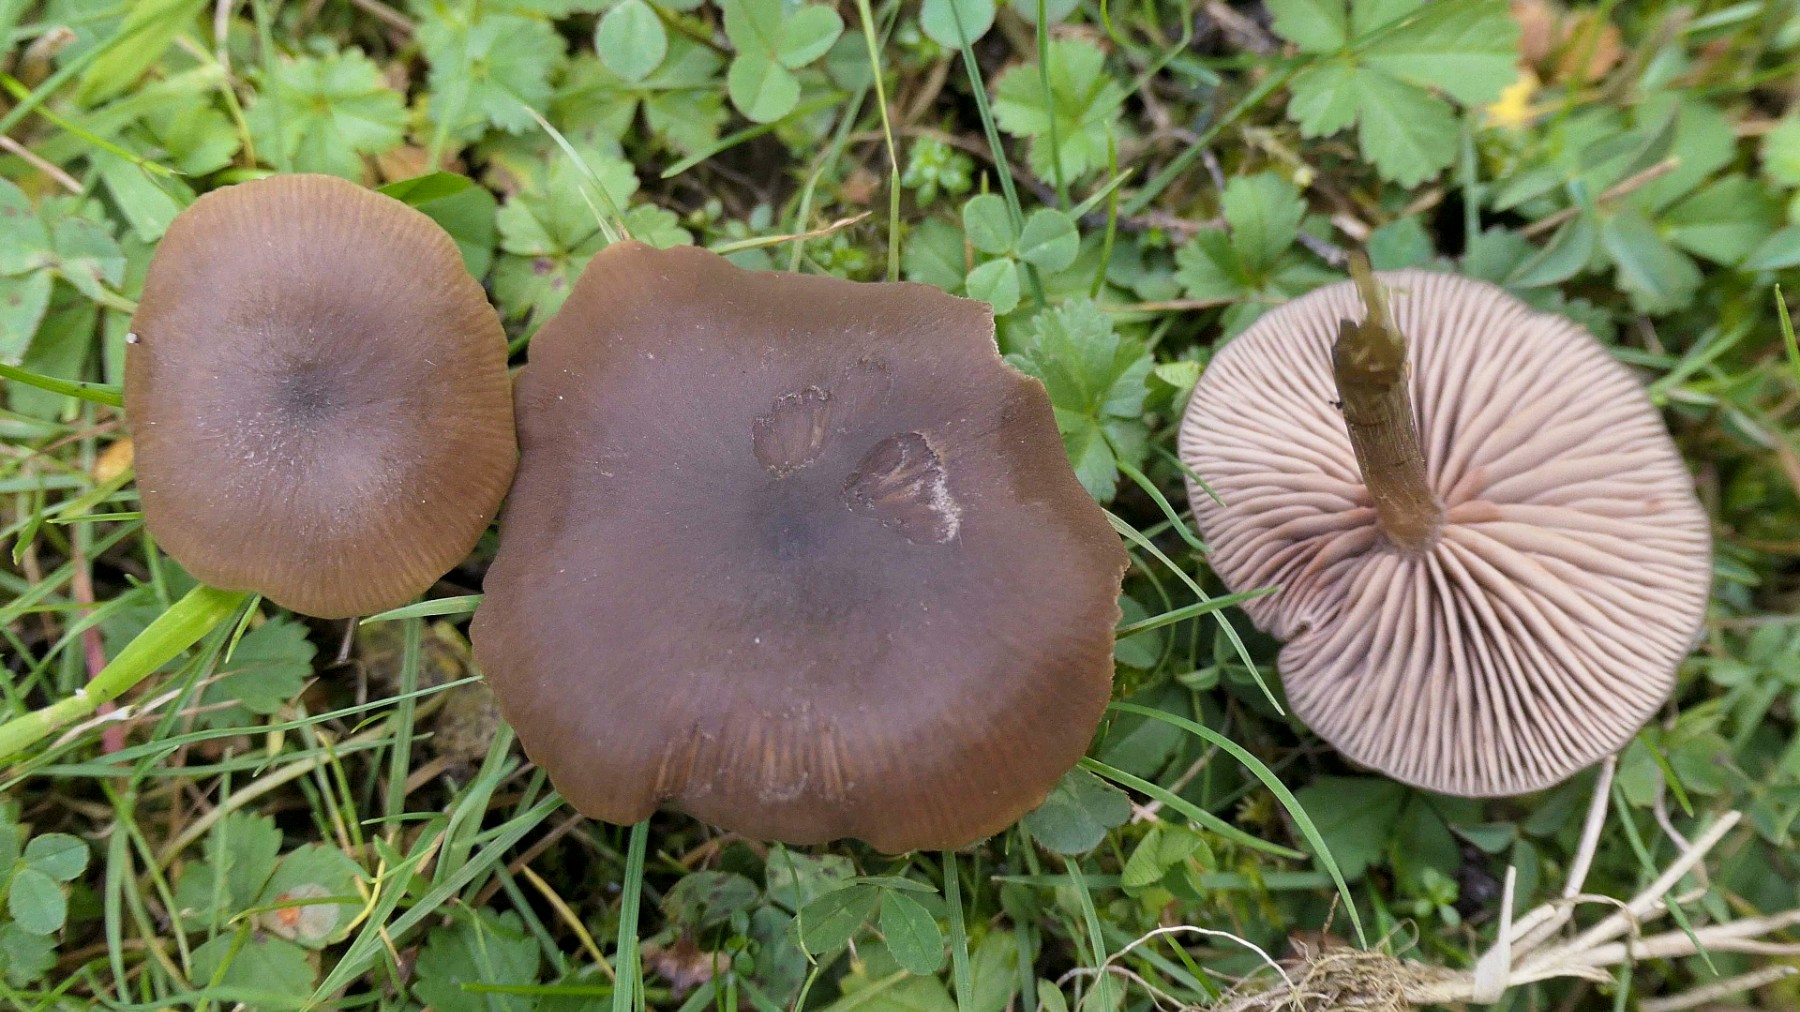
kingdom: Fungi
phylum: Basidiomycota
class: Agaricomycetes
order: Agaricales
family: Entolomataceae
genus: Entoloma
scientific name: Entoloma sericeum
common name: silkeglinsende rødblad
